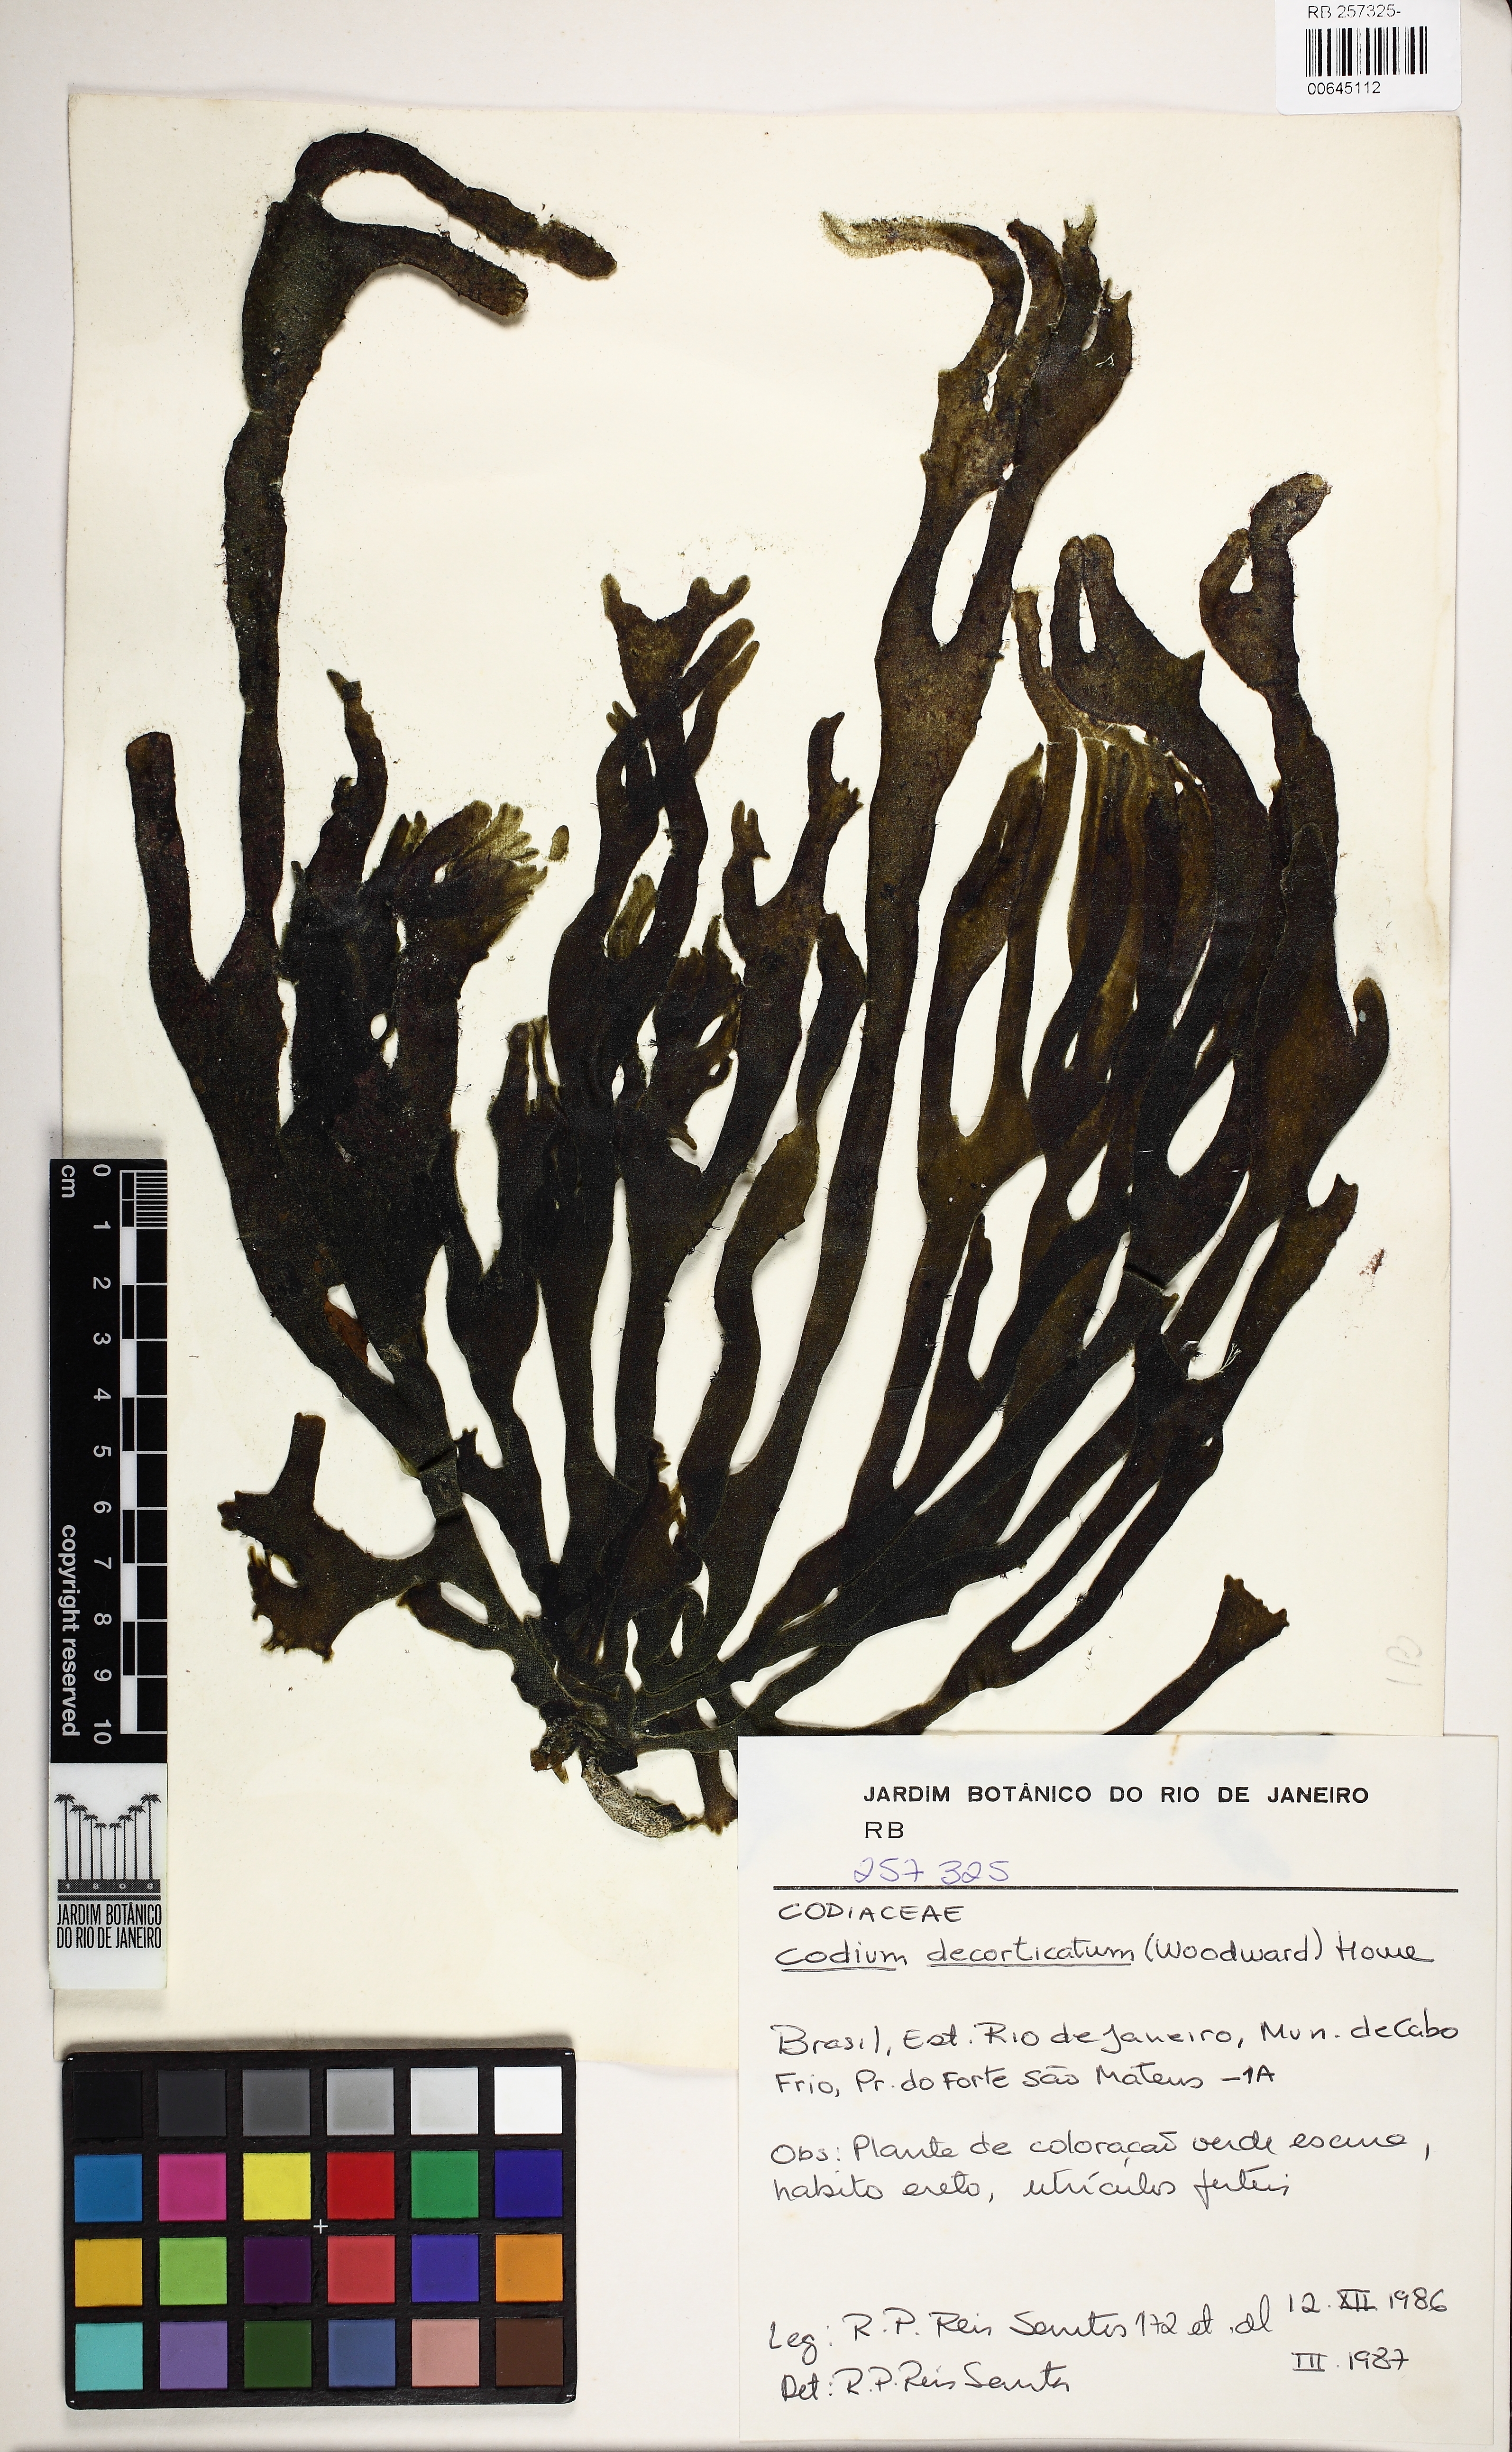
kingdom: Plantae
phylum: Chlorophyta
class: Ulvophyceae
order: Bryopsidales
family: Codiaceae
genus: Codium
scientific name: Codium decorticatum
